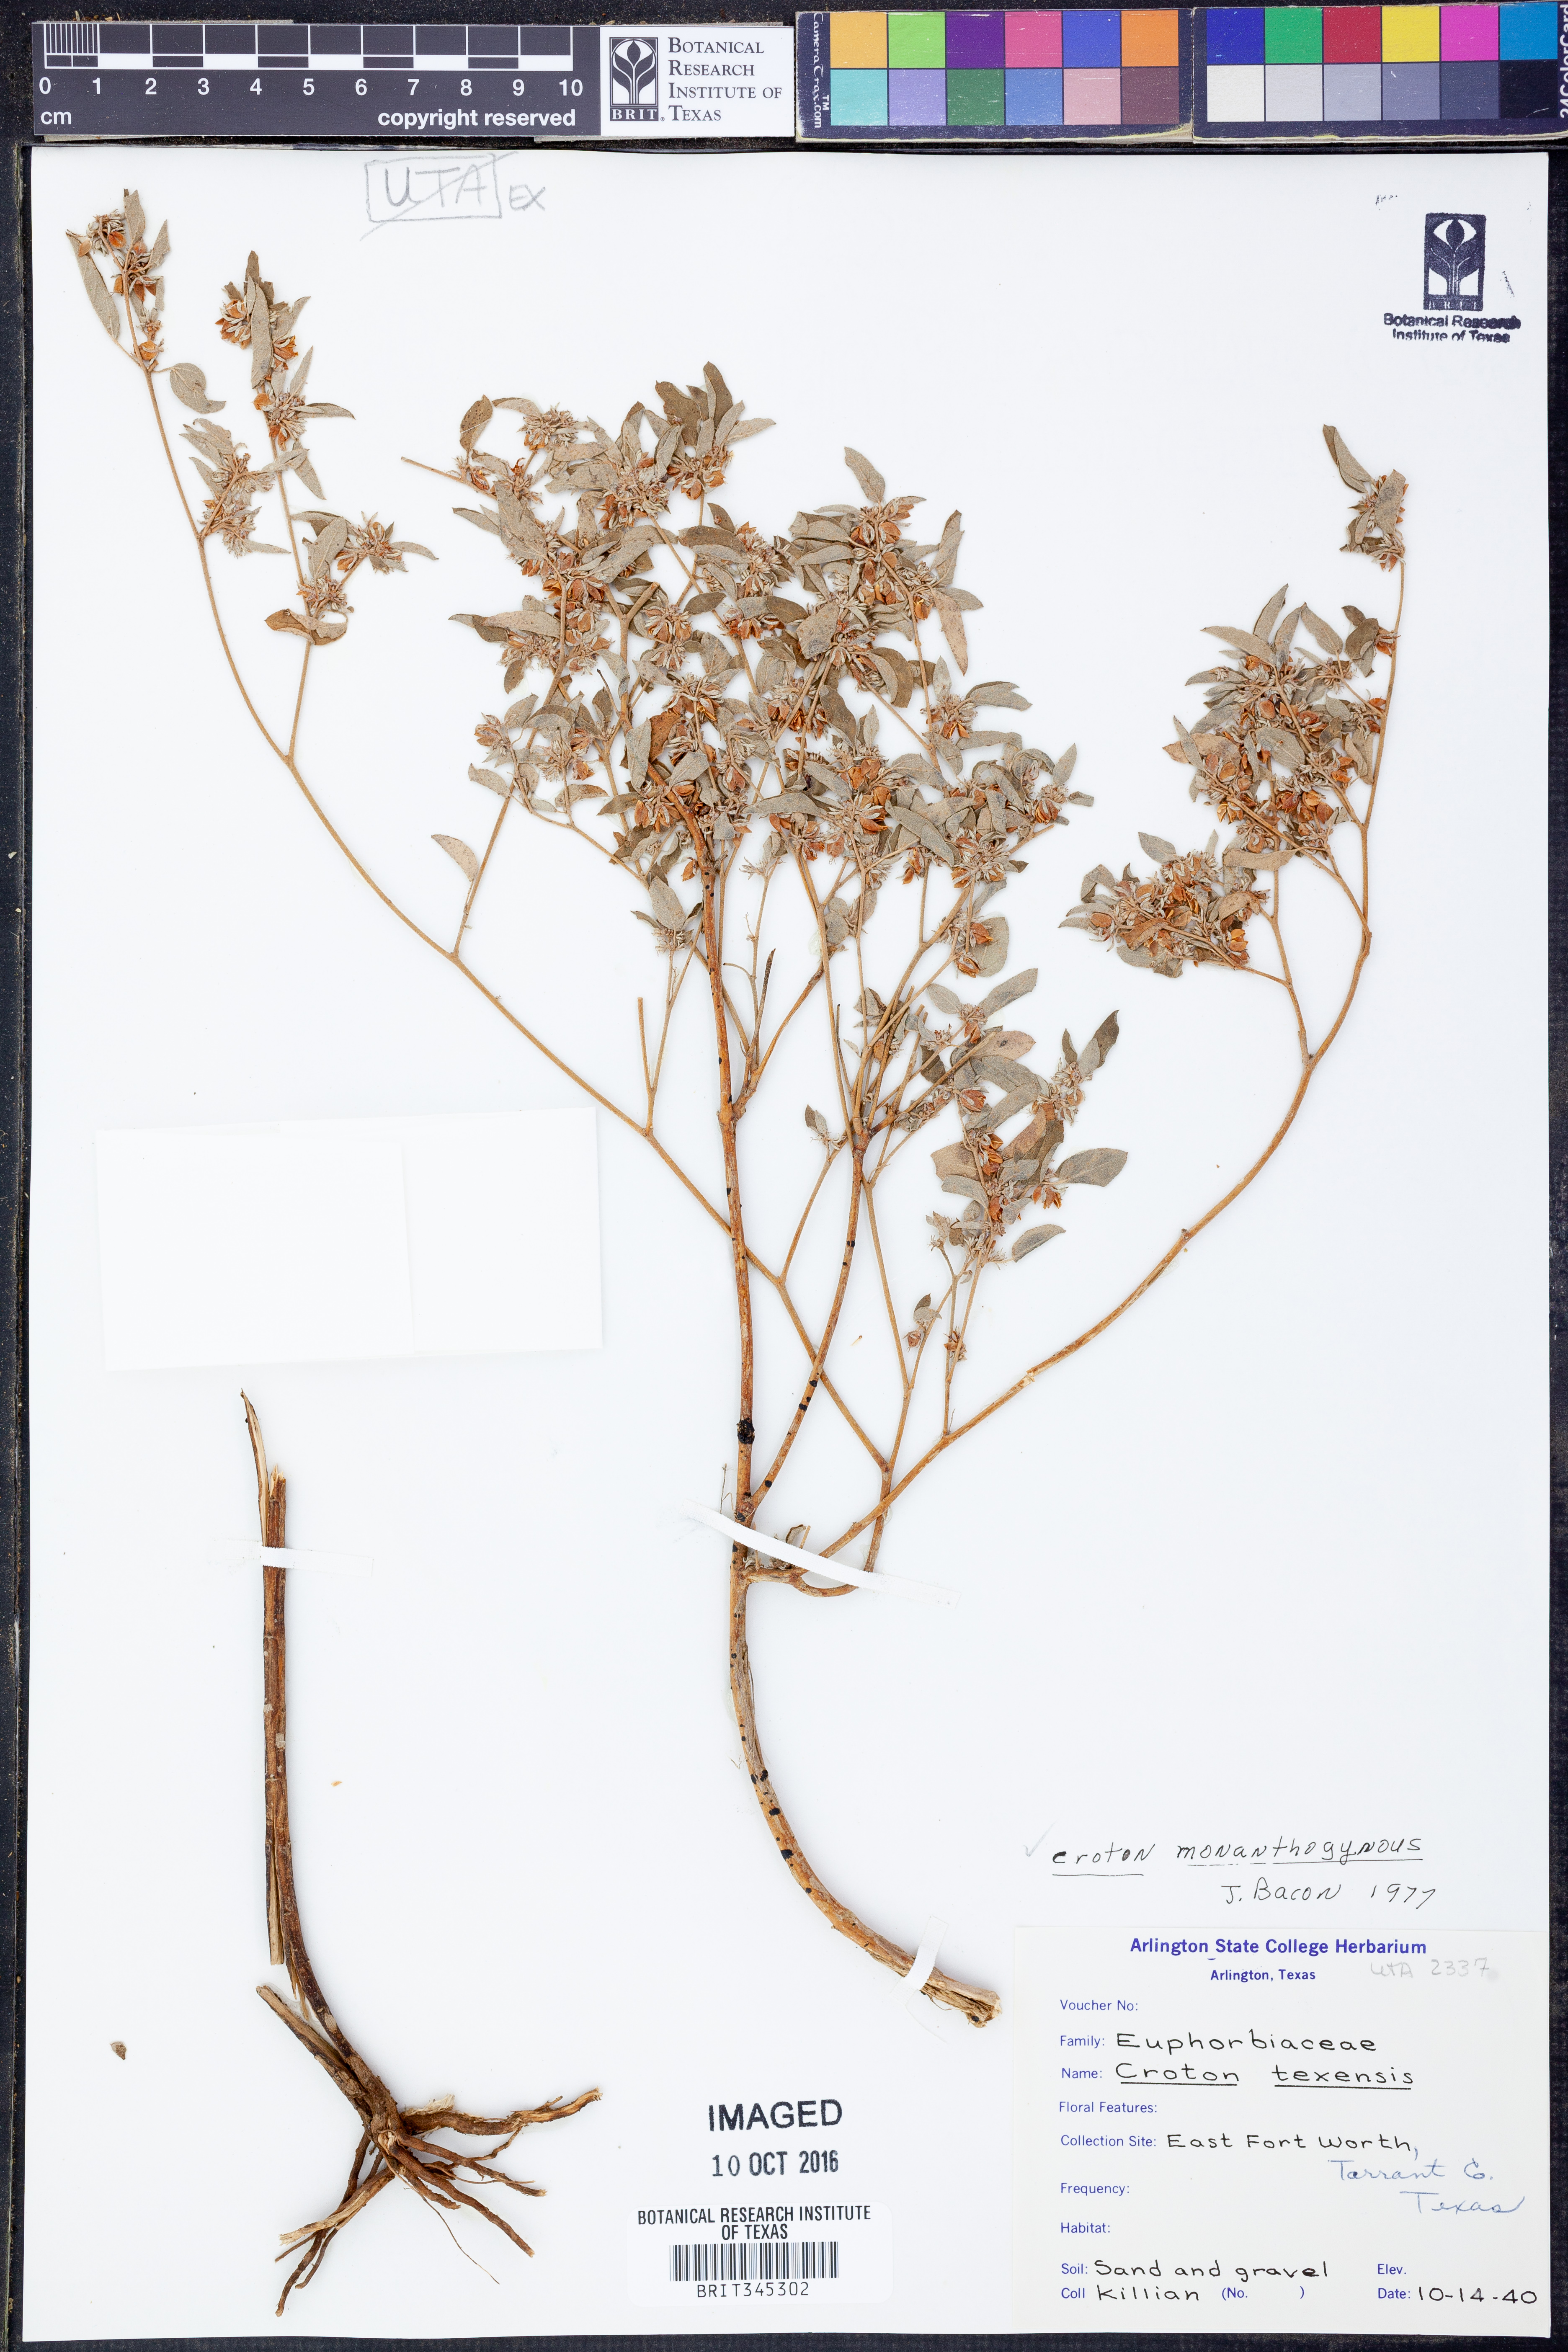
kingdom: Plantae
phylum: Tracheophyta
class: Magnoliopsida
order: Malpighiales
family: Euphorbiaceae
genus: Croton
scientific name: Croton monanthogynus
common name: One-seed croton
